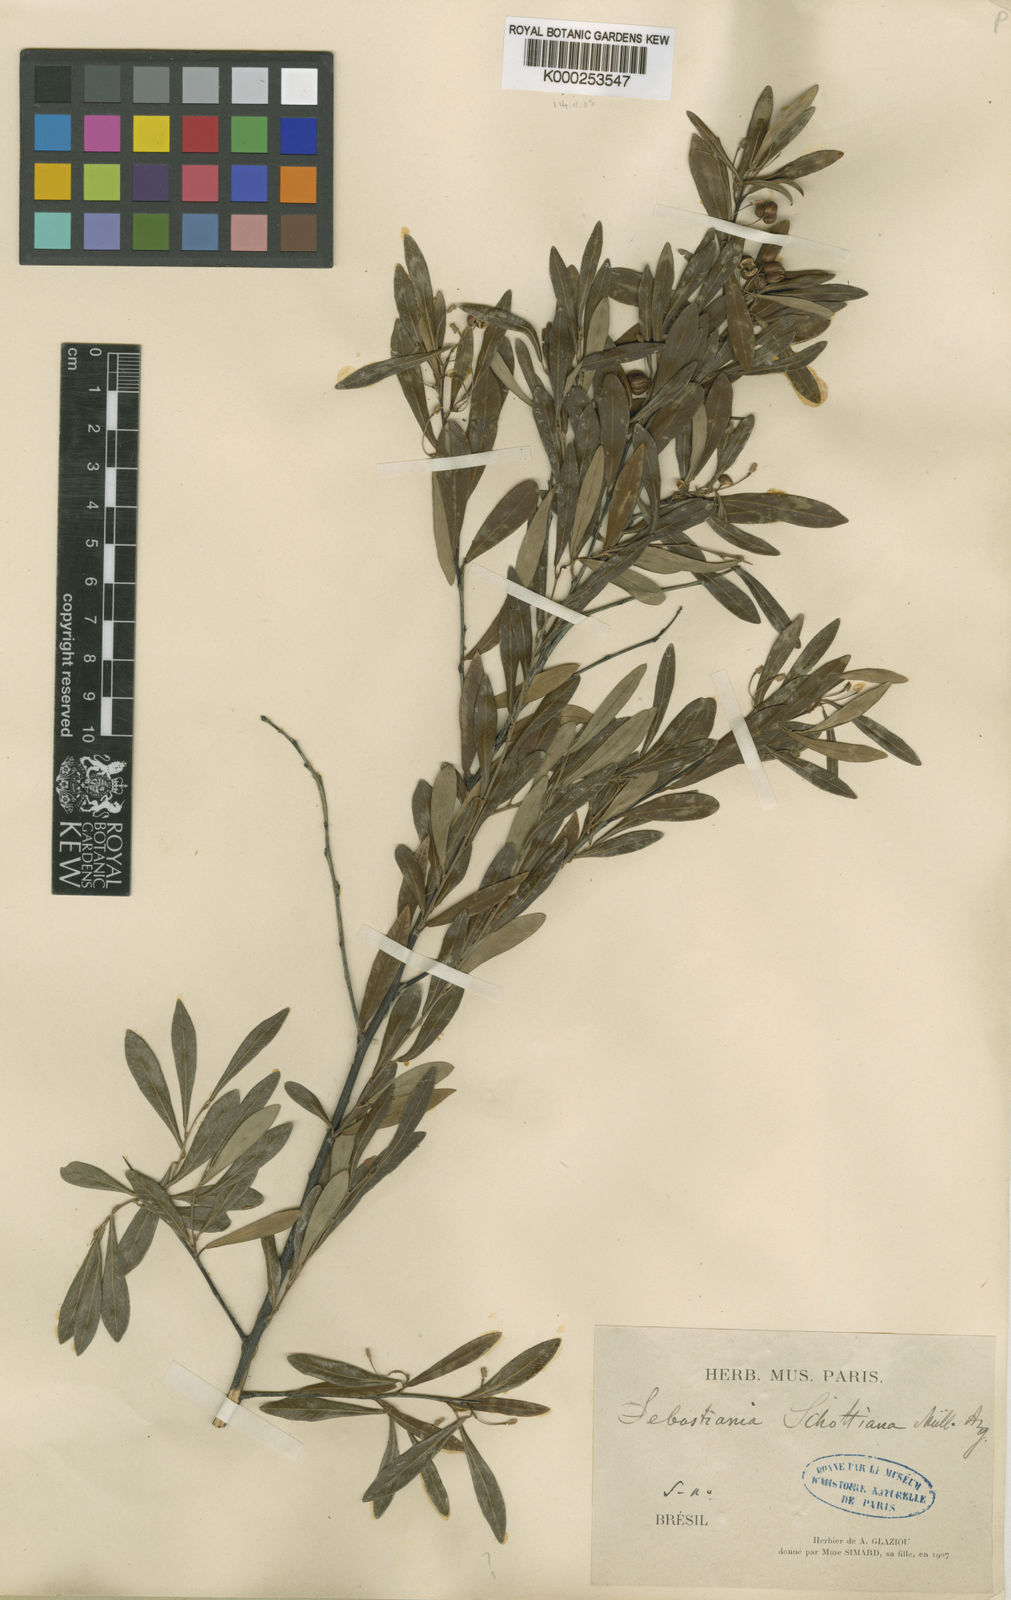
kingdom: Plantae
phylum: Tracheophyta
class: Magnoliopsida
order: Malpighiales
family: Euphorbiaceae
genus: Gymnanthes
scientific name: Gymnanthes
